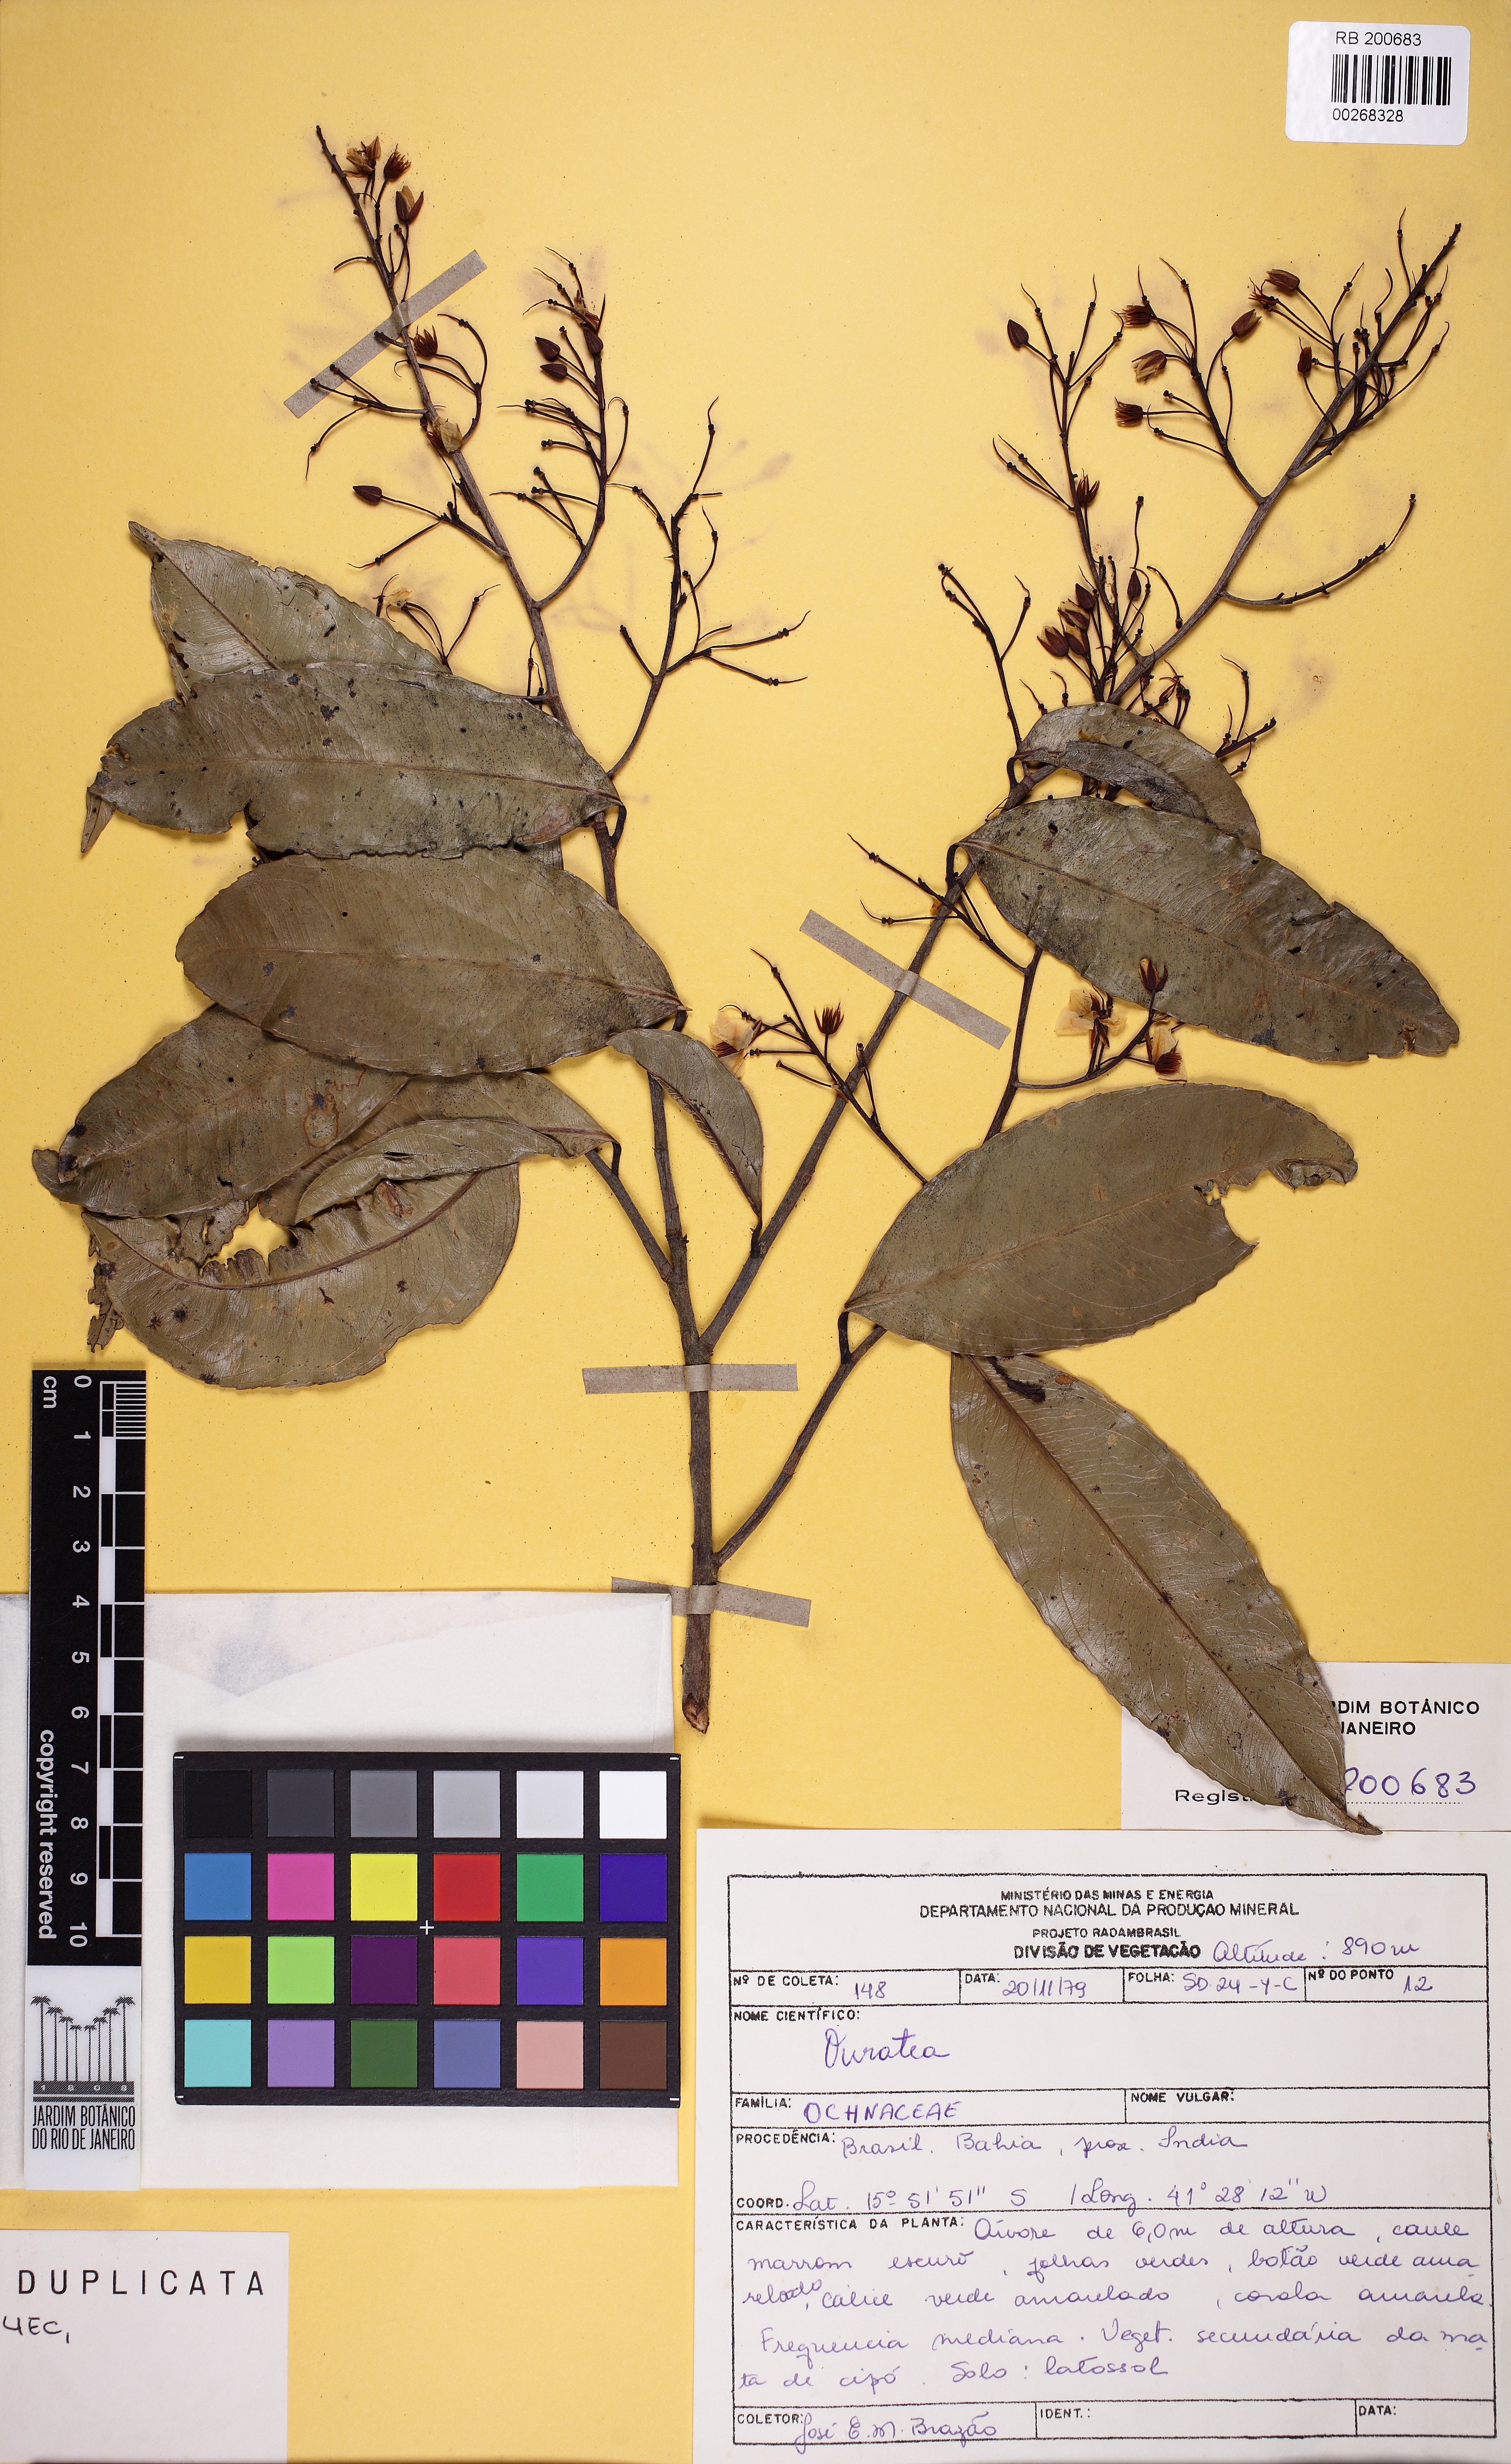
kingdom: Plantae
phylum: Tracheophyta
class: Magnoliopsida
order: Malpighiales
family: Ochnaceae
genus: Ouratea
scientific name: Ouratea
